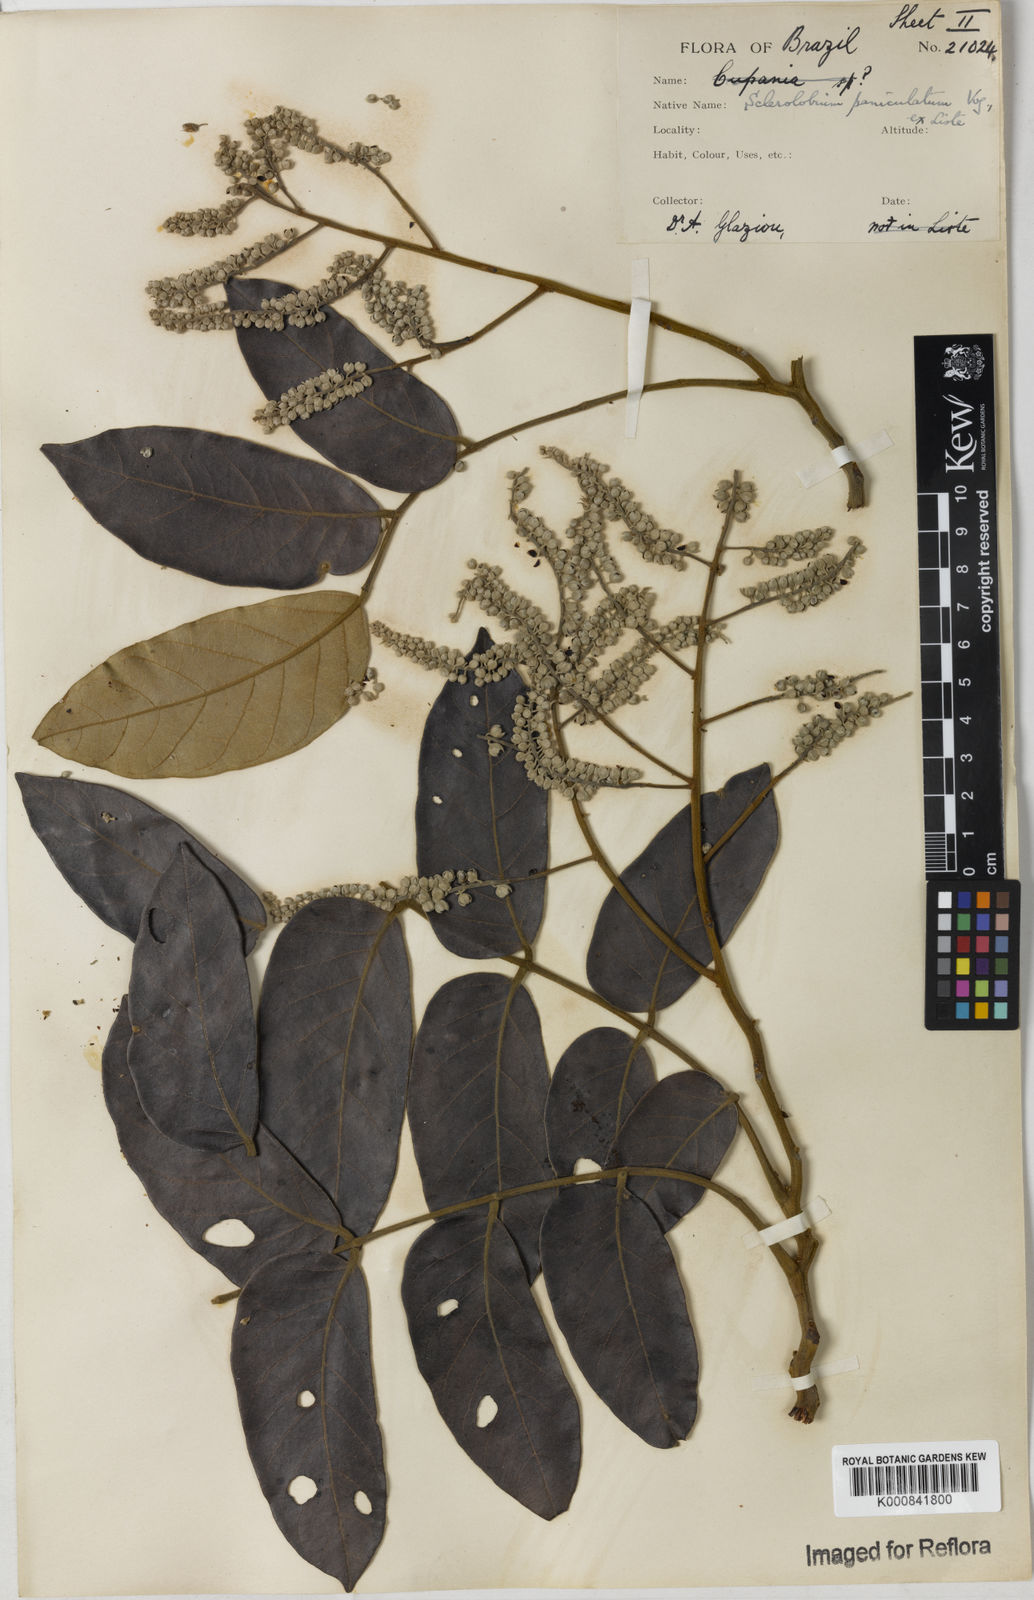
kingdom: Plantae
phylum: Tracheophyta
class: Magnoliopsida
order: Fabales
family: Fabaceae
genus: Tachigali
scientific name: Tachigali subvelutina
